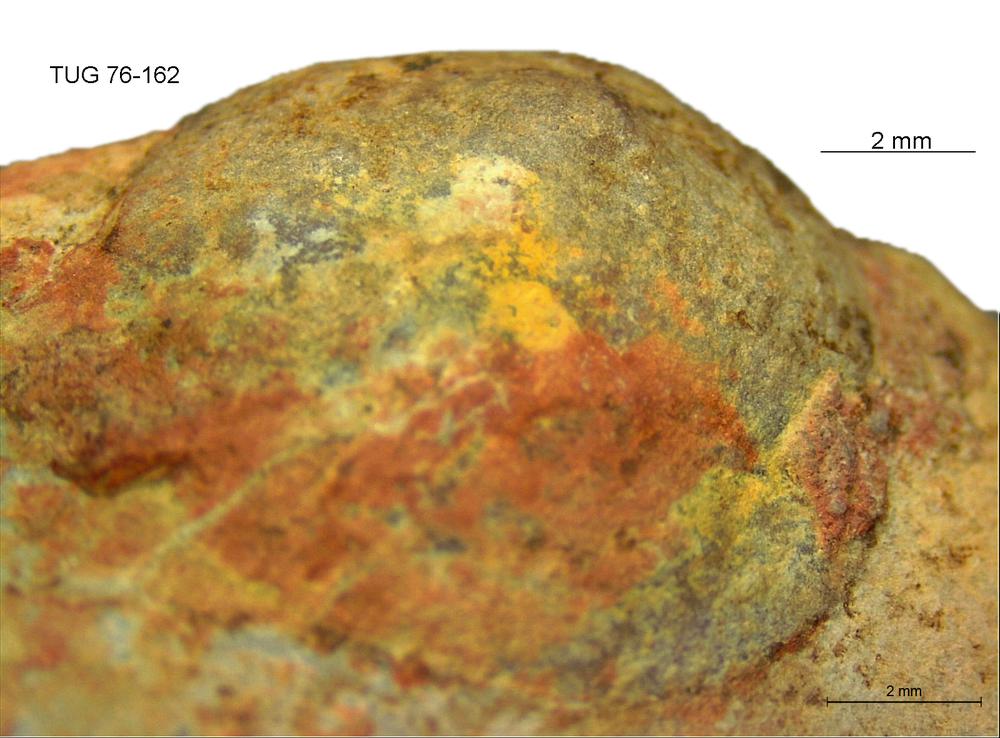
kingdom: Animalia
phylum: Brachiopoda
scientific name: Brachiopoda
